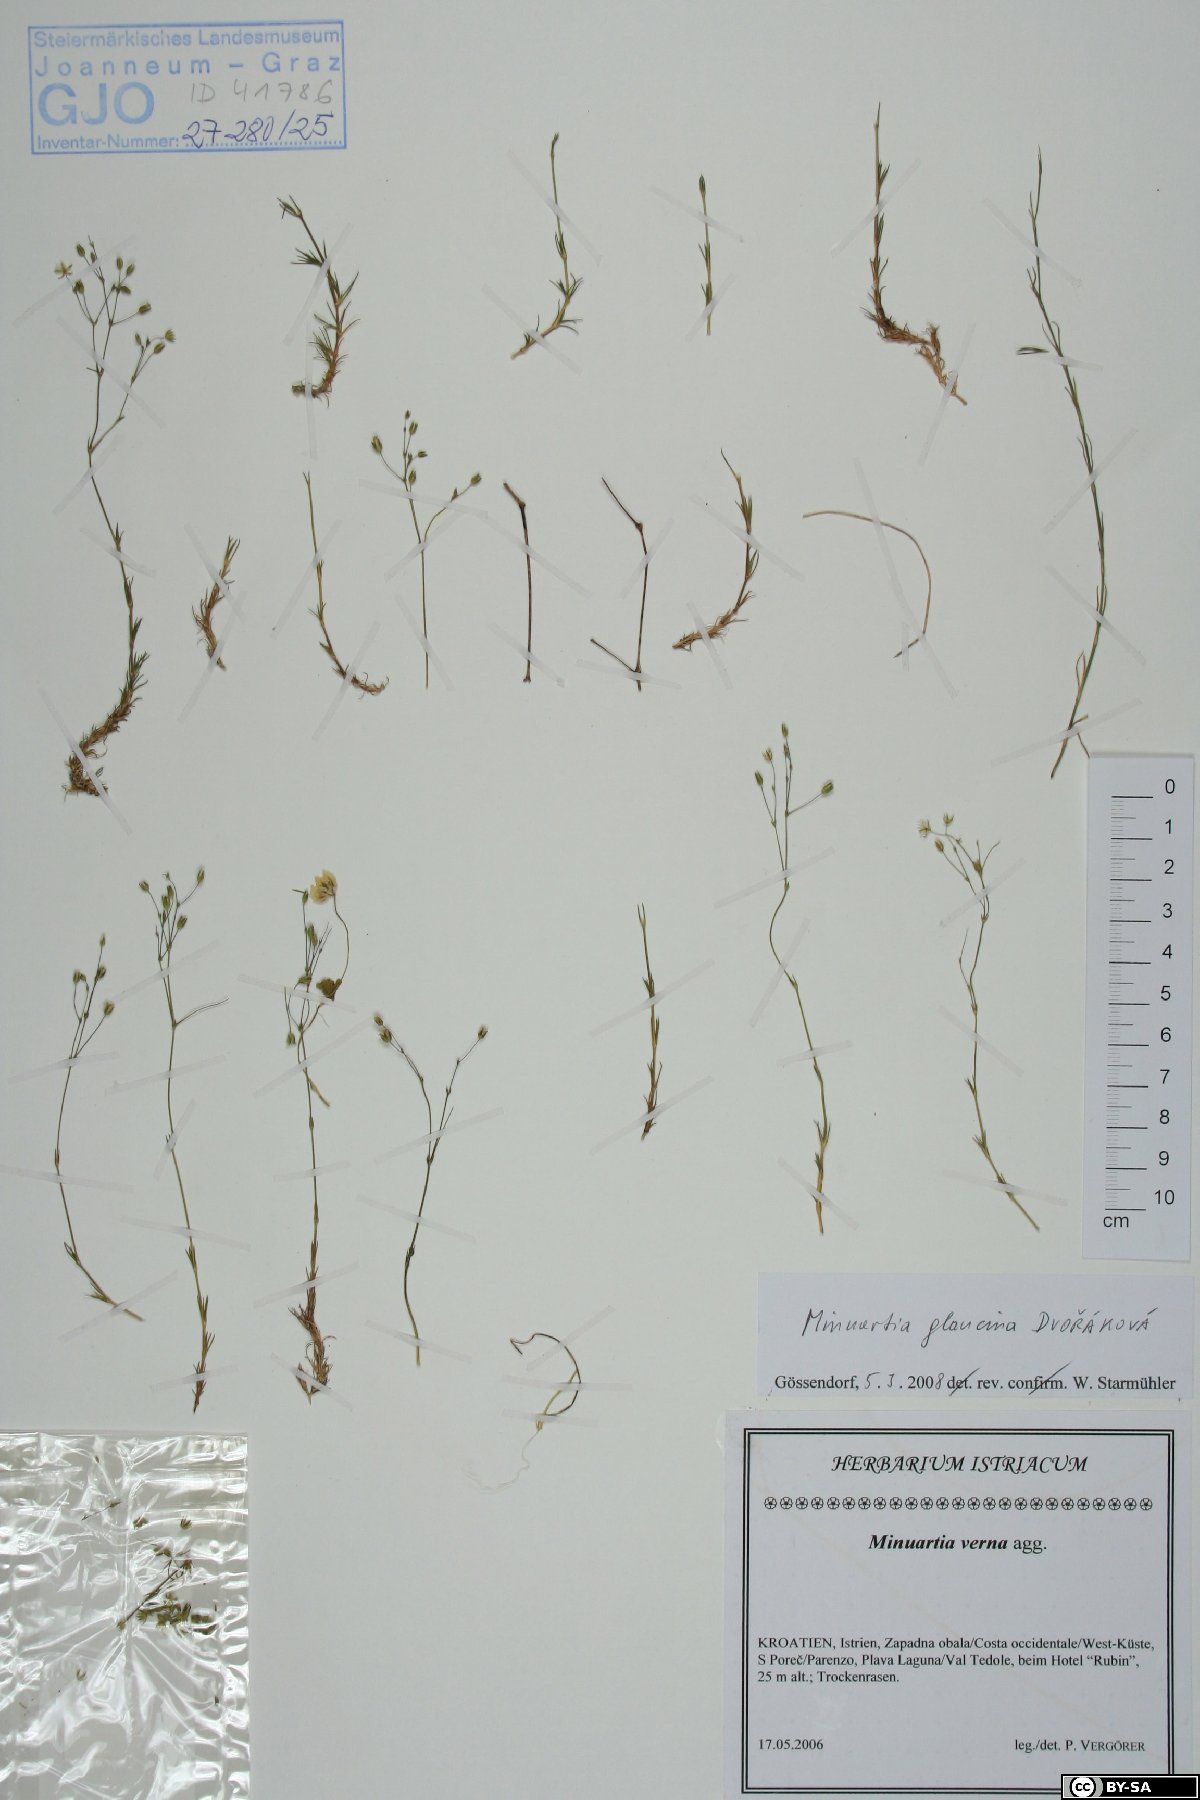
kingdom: Plantae
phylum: Tracheophyta
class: Magnoliopsida
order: Caryophyllales
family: Caryophyllaceae
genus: Sabulina
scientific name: Sabulina glaucina
